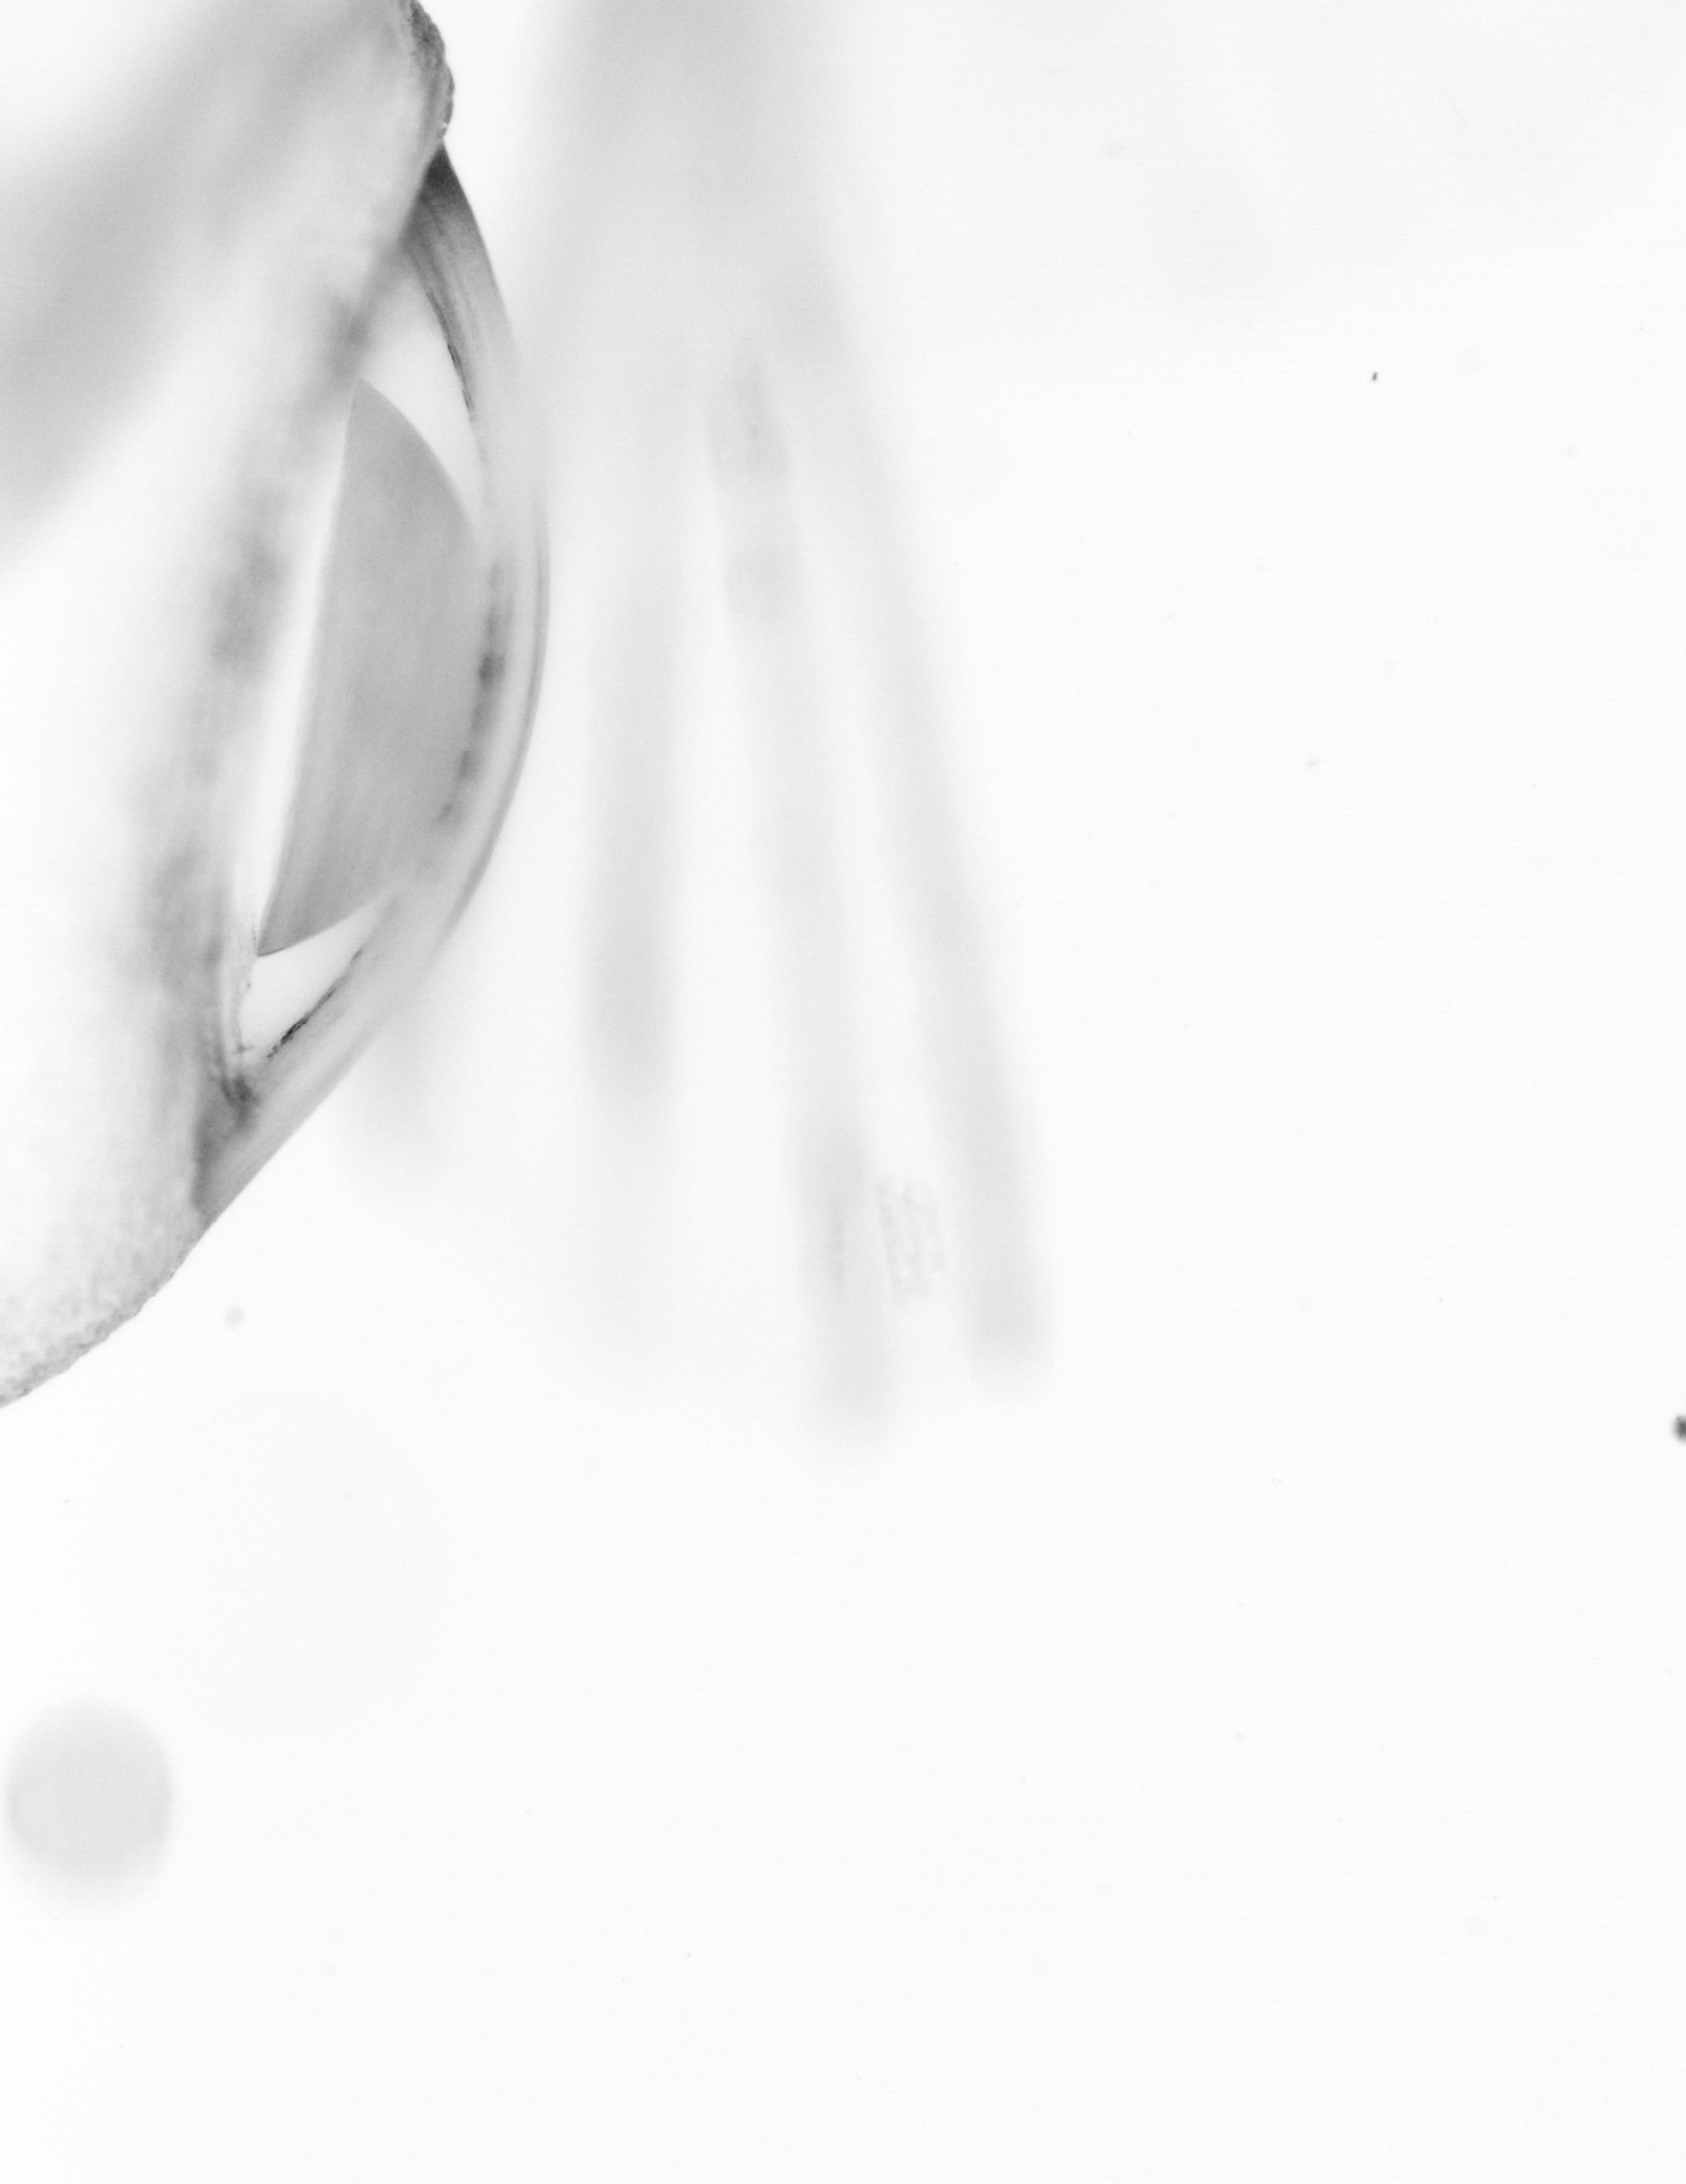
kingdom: Animalia
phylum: Chordata
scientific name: Chordata
